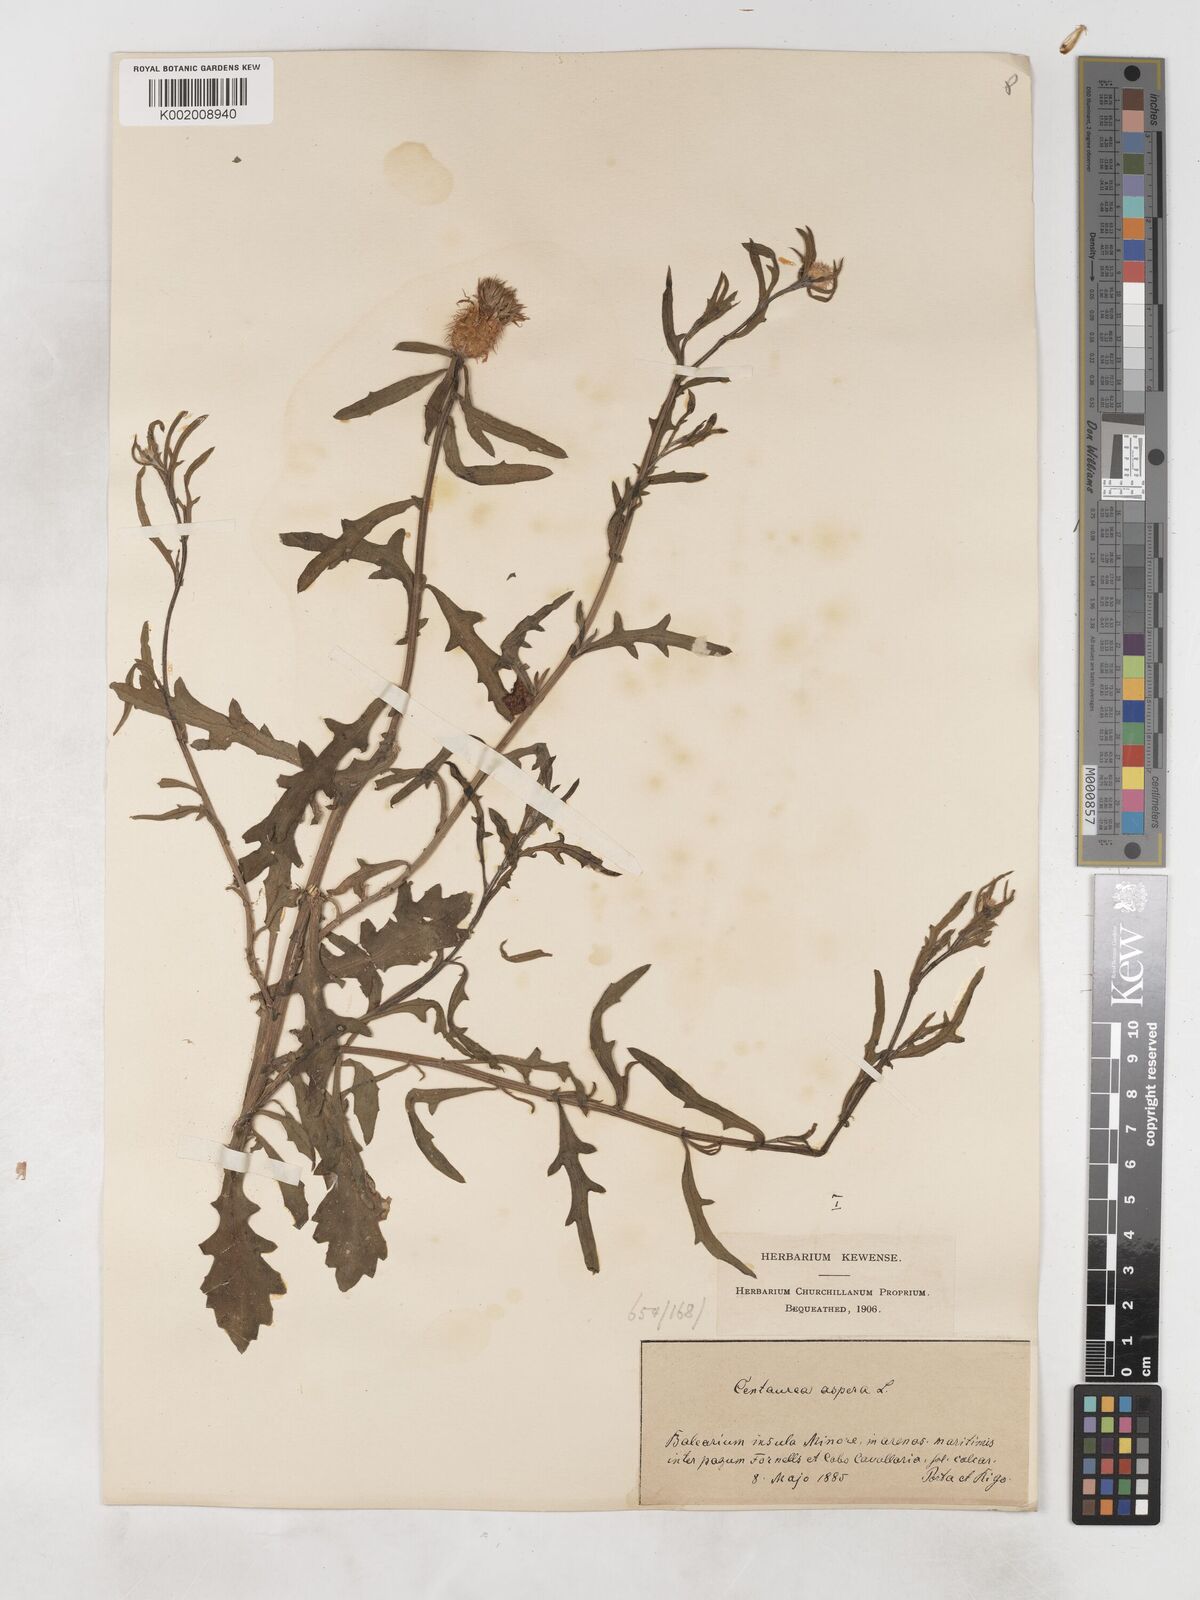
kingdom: Plantae
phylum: Tracheophyta
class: Magnoliopsida
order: Asterales
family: Asteraceae
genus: Centaurea
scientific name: Centaurea aspera
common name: Rough star-thistle
